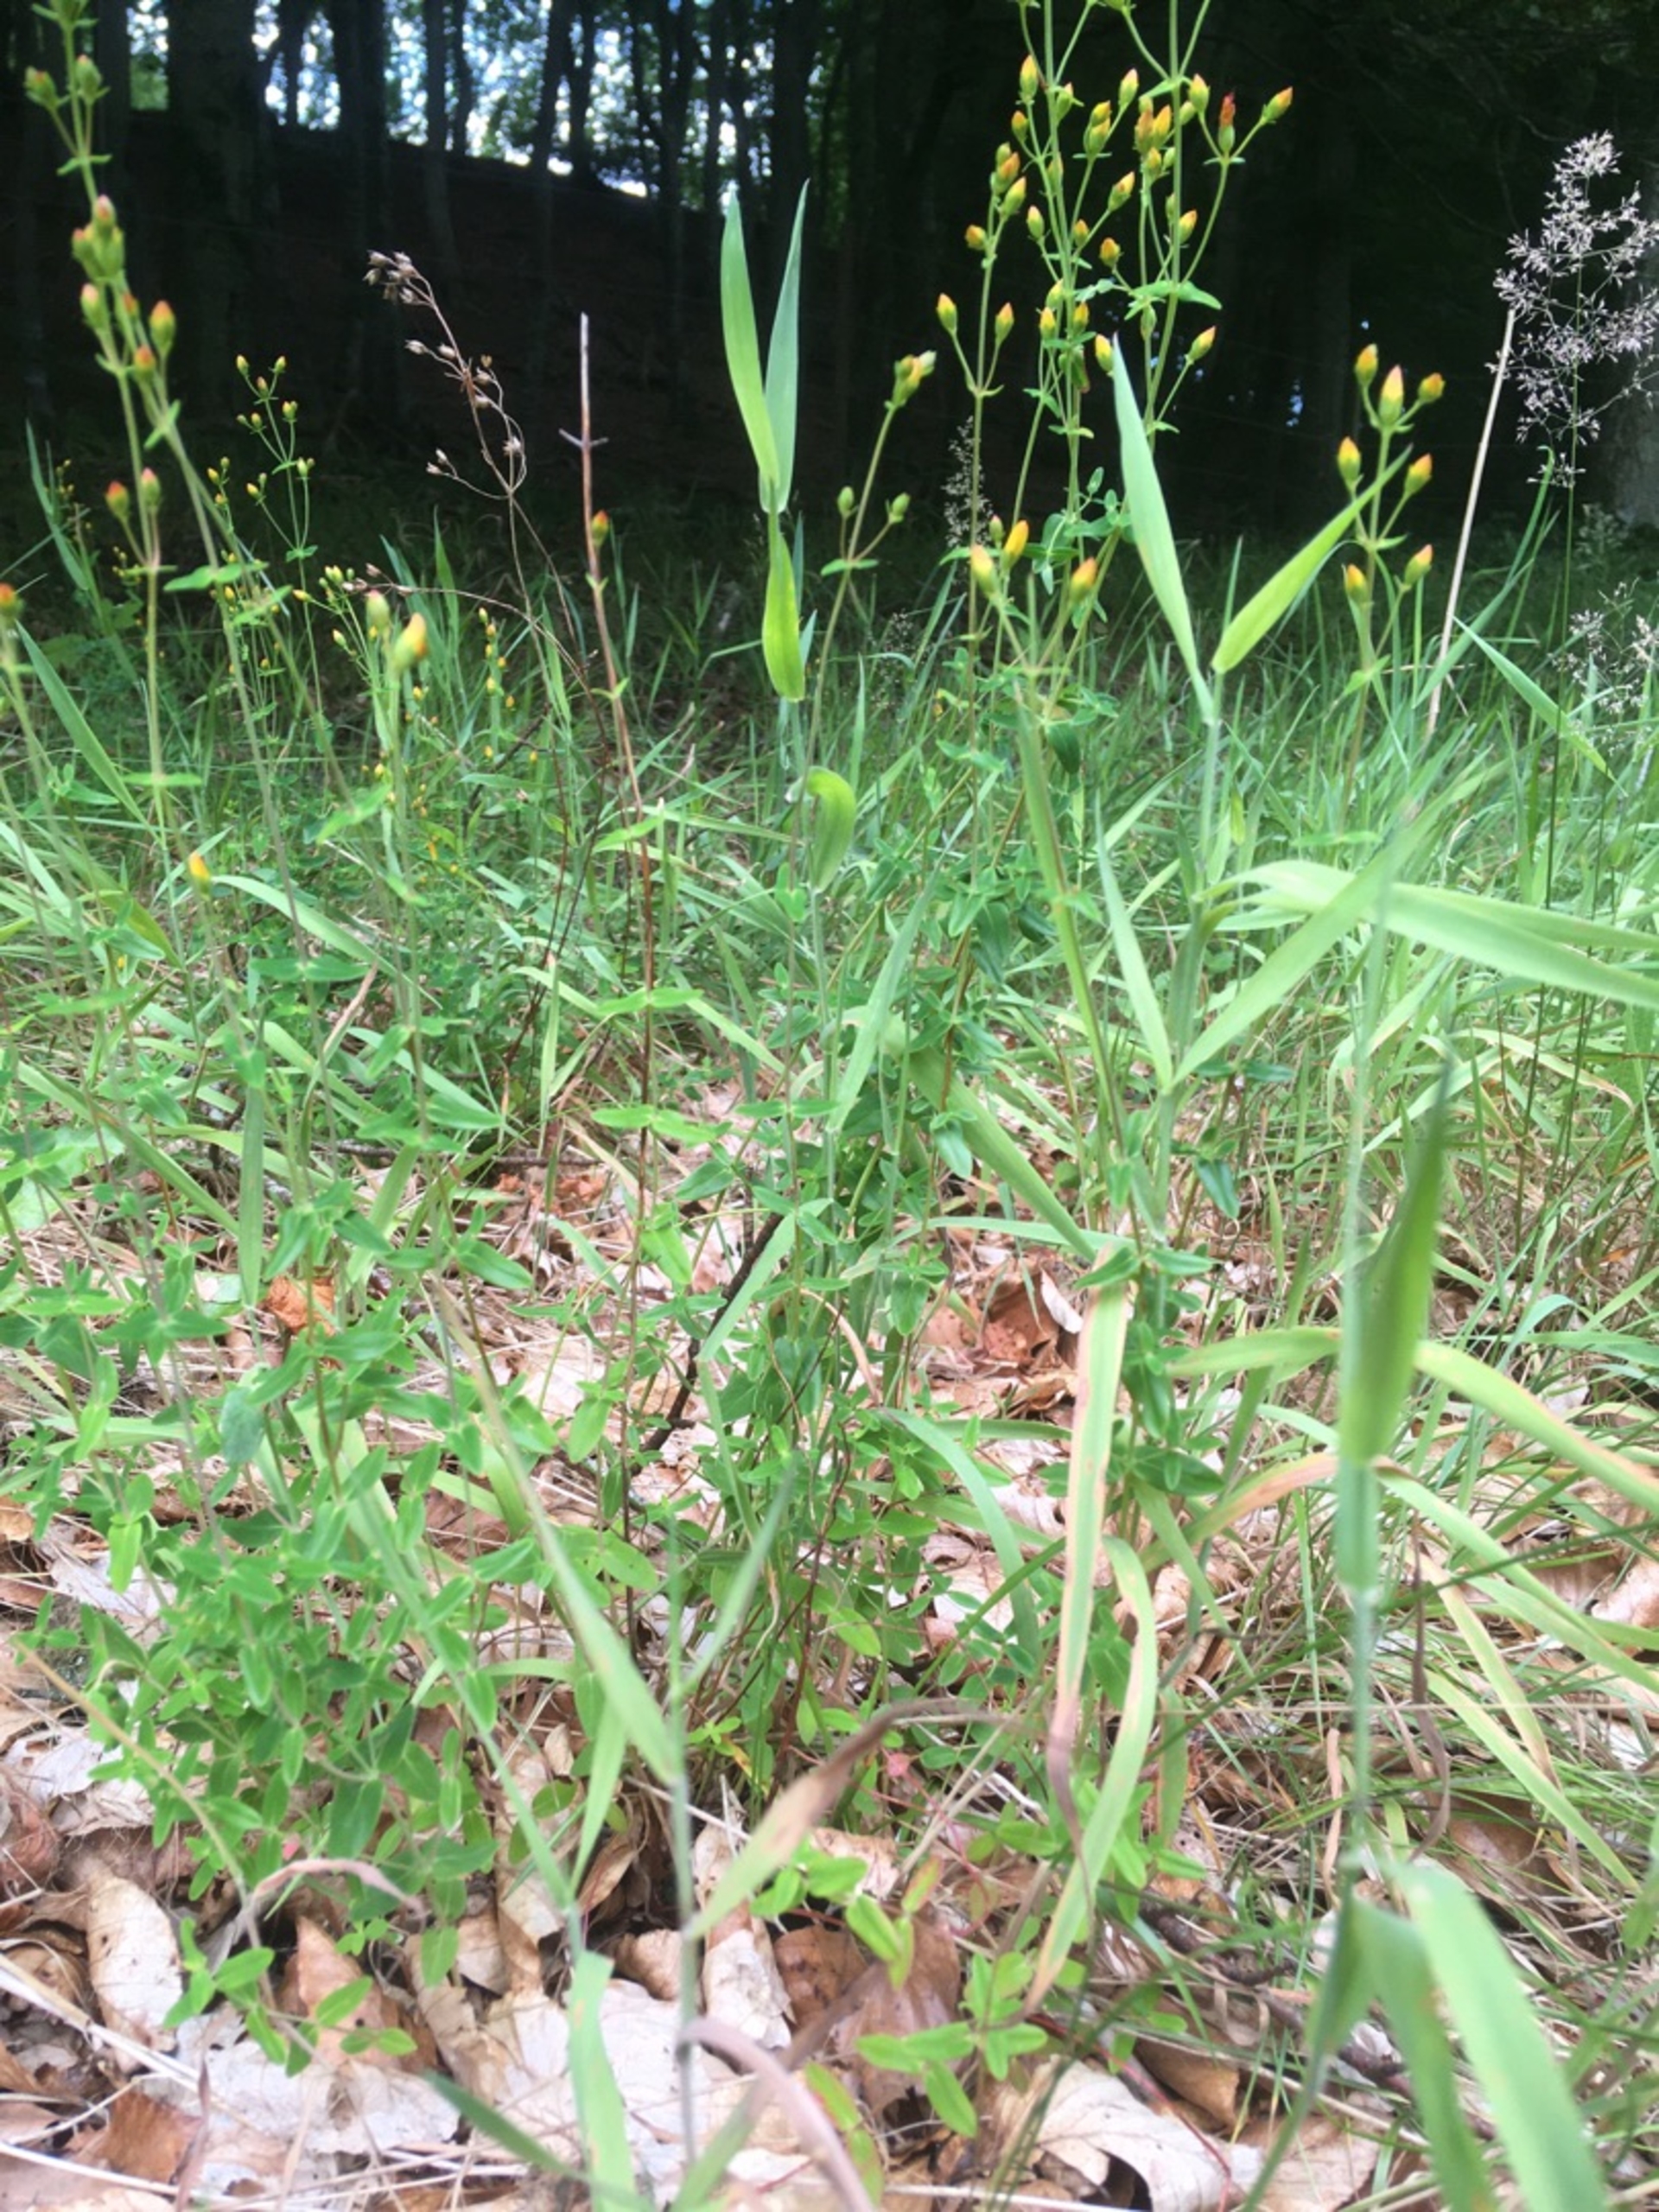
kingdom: Plantae
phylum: Tracheophyta
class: Magnoliopsida
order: Malpighiales
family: Hypericaceae
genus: Hypericum
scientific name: Hypericum pulchrum
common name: Smuk perikon
